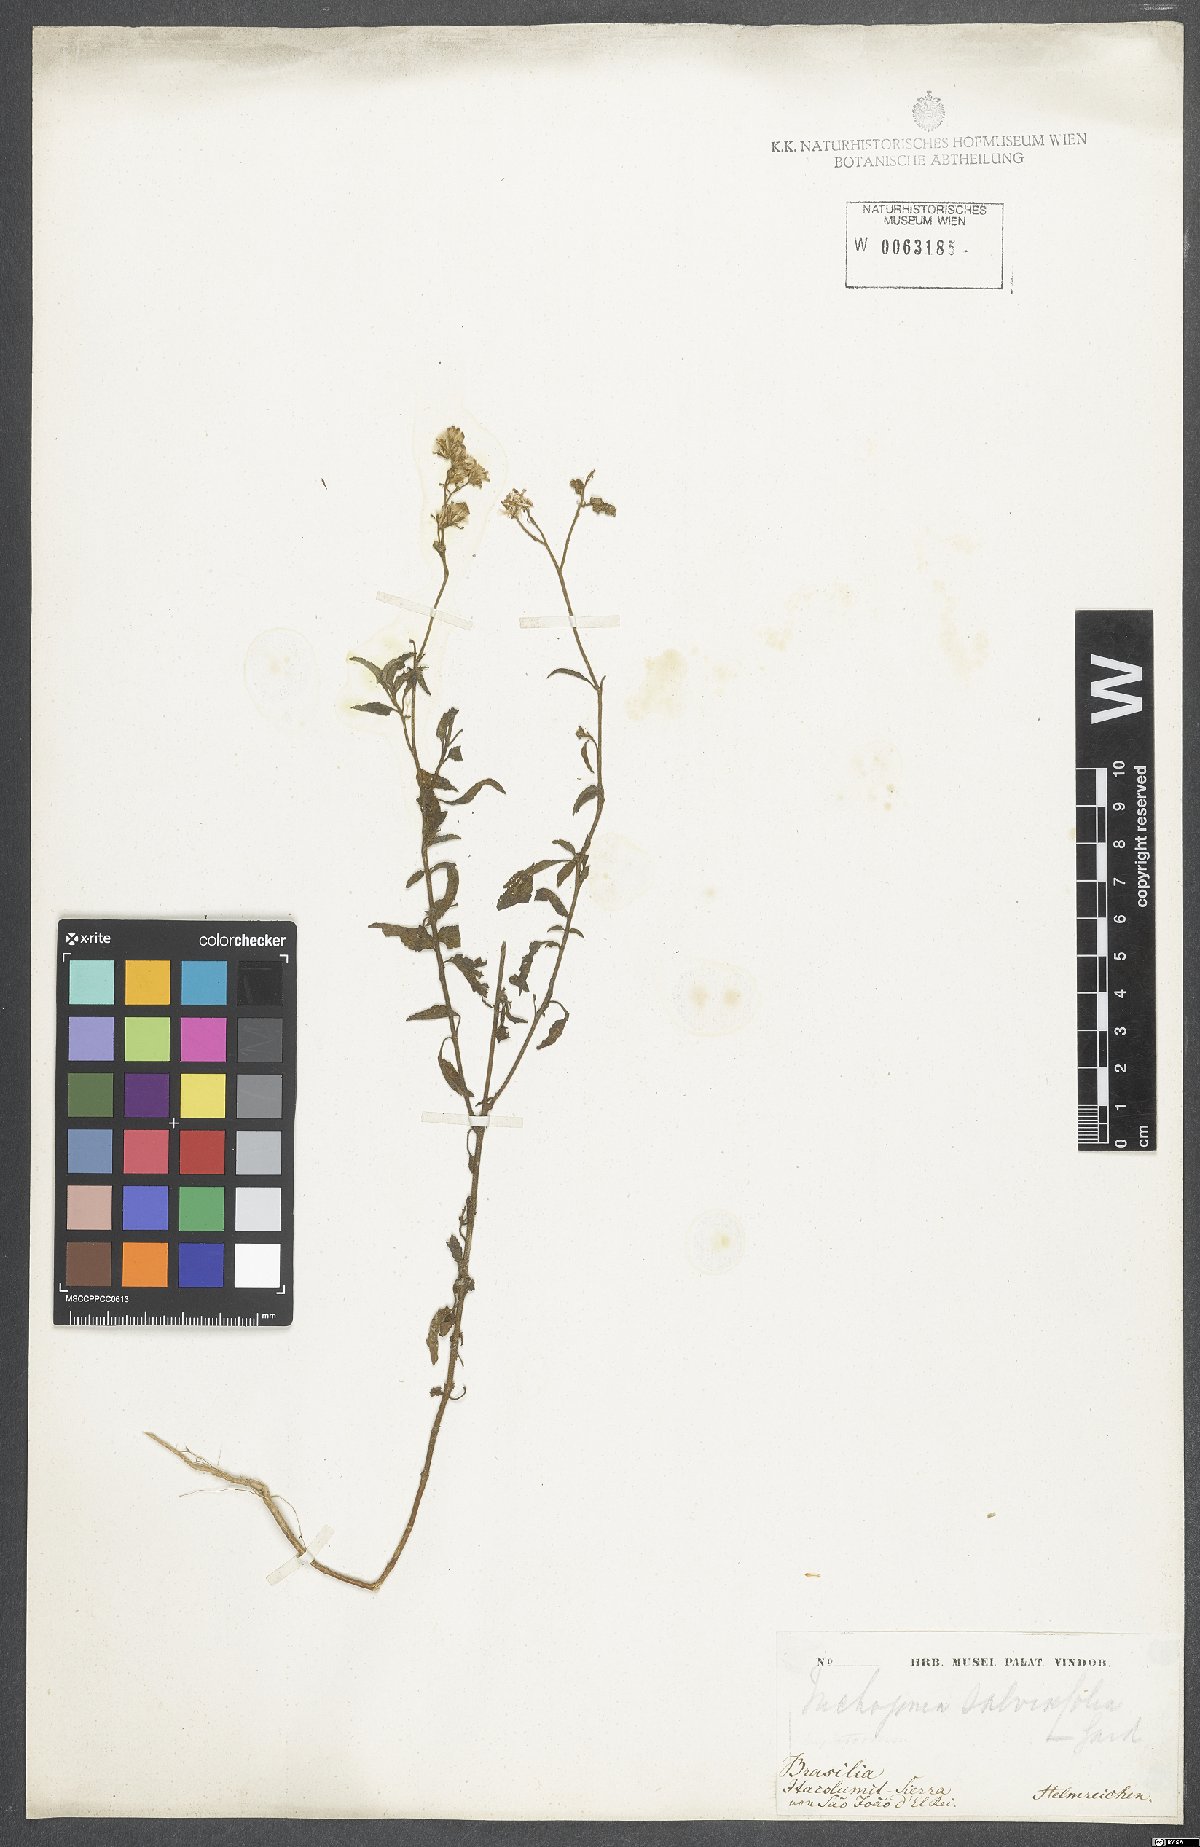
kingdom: Plantae
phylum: Tracheophyta
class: Magnoliopsida
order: Asterales
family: Asteraceae
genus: Eupatorium
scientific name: Eupatorium
